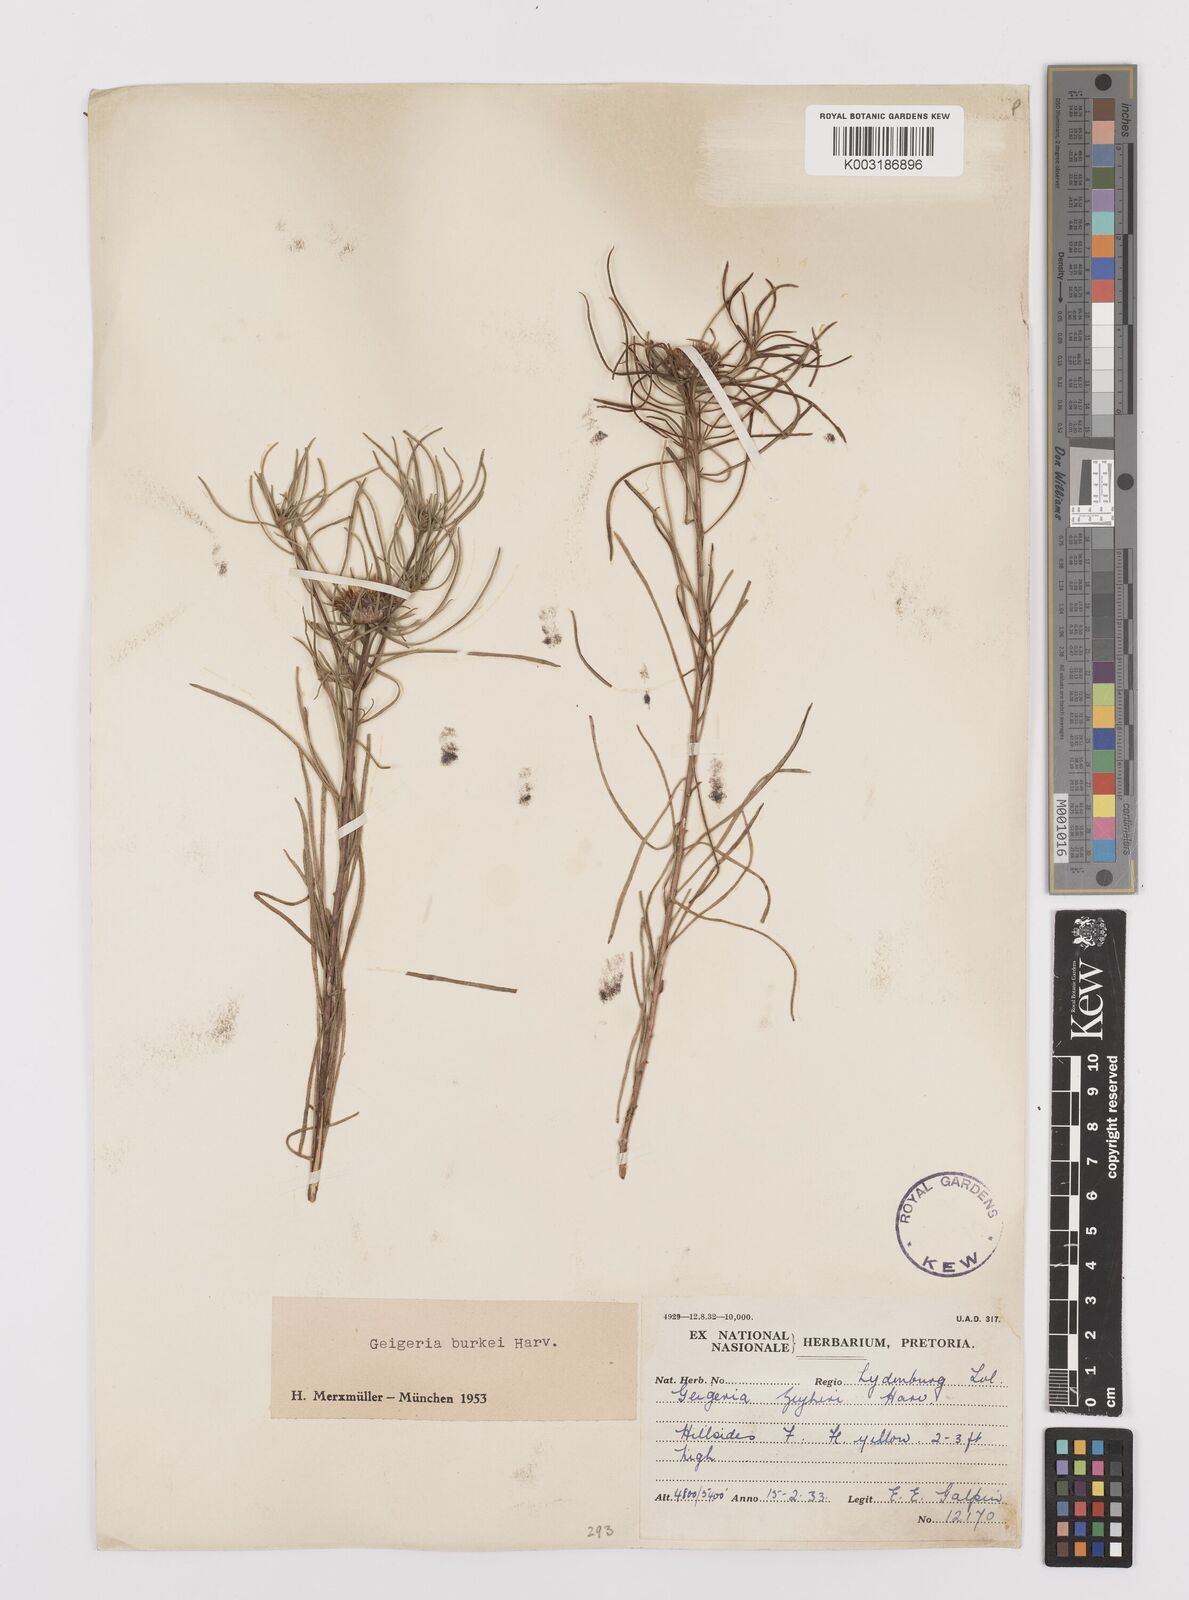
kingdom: Plantae
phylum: Tracheophyta
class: Magnoliopsida
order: Asterales
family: Asteraceae
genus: Geigeria
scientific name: Geigeria burkei
